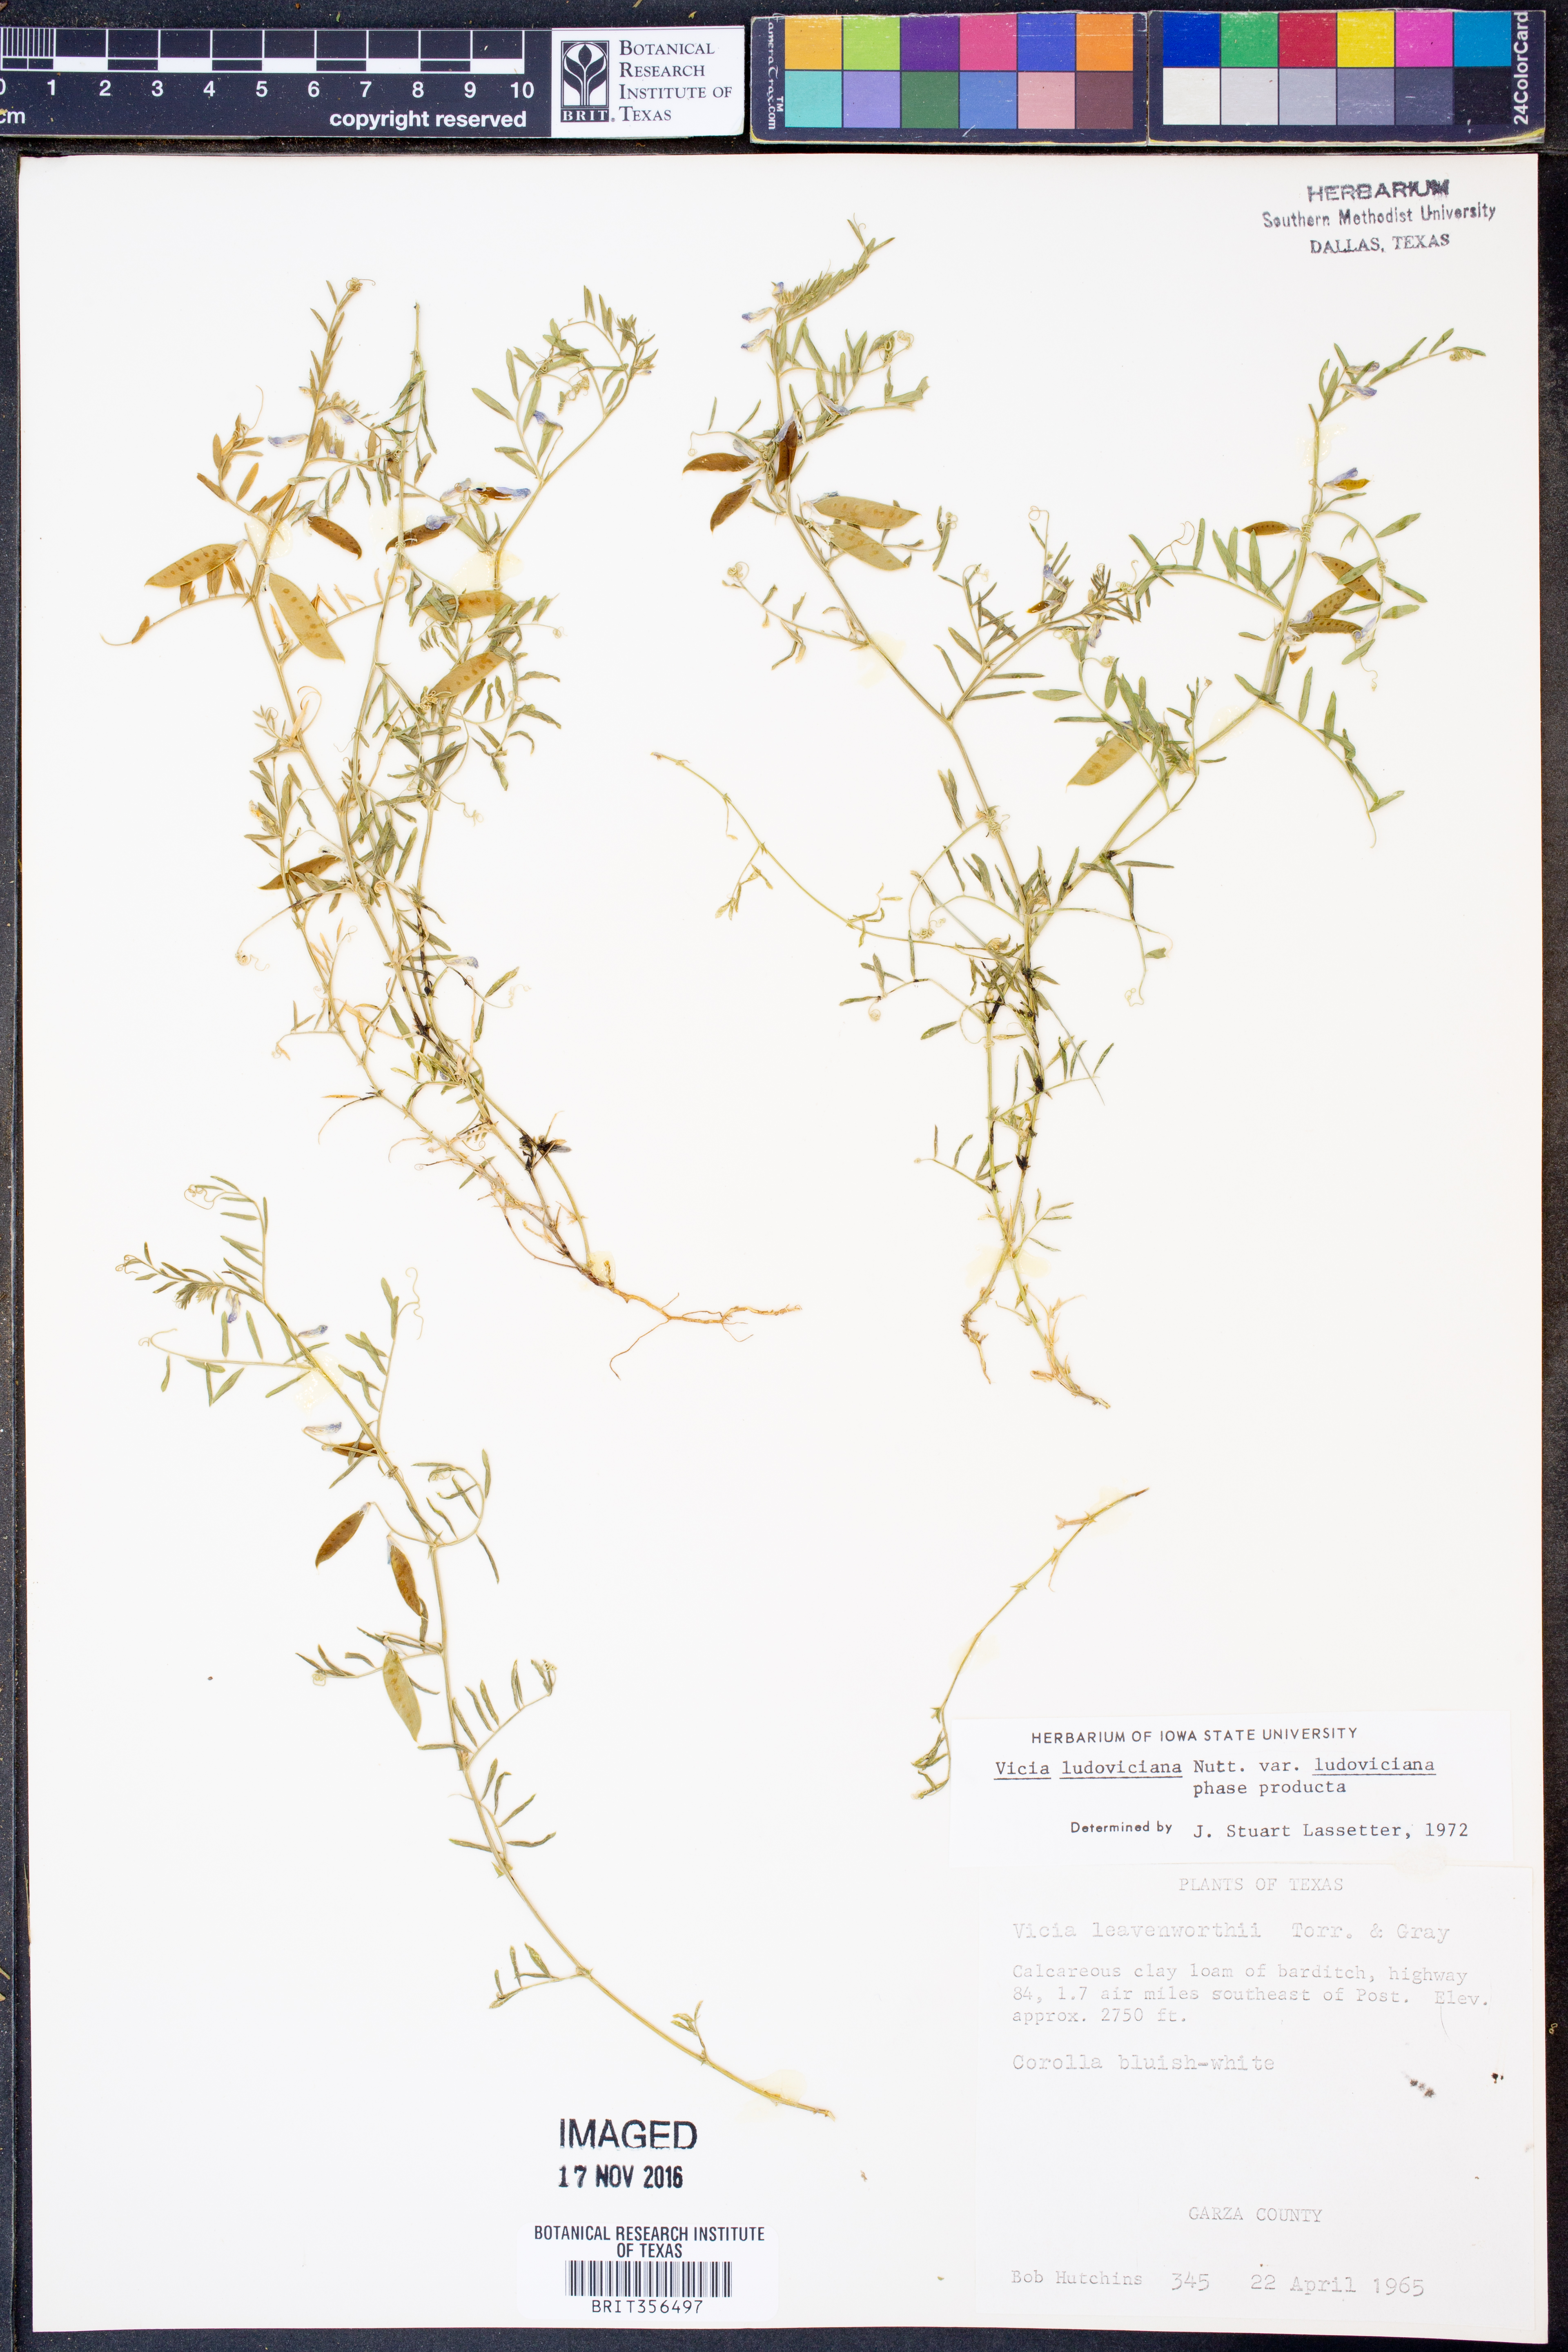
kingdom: Plantae
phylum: Tracheophyta
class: Magnoliopsida
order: Fabales
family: Fabaceae
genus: Vicia
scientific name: Vicia ludoviciana
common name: Louisiana vetch
